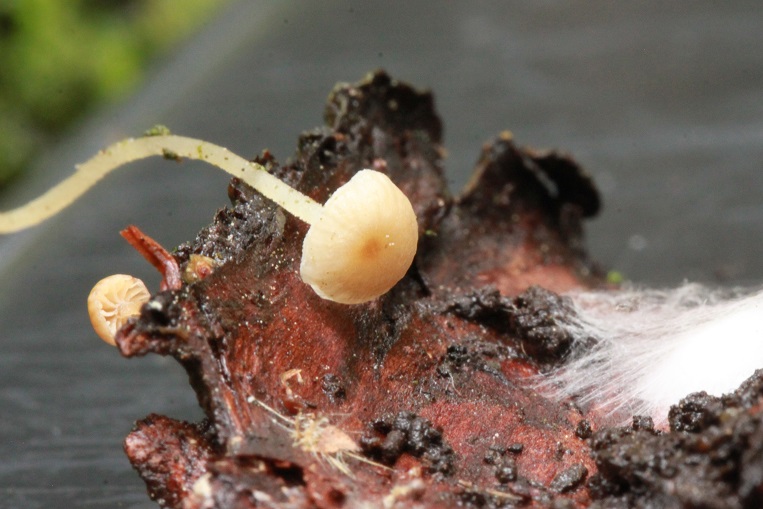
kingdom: Fungi
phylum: Basidiomycota
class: Agaricomycetes
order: Agaricales
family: Porotheleaceae
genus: Phloeomana
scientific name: Phloeomana speirea
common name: kvist-huesvamp
